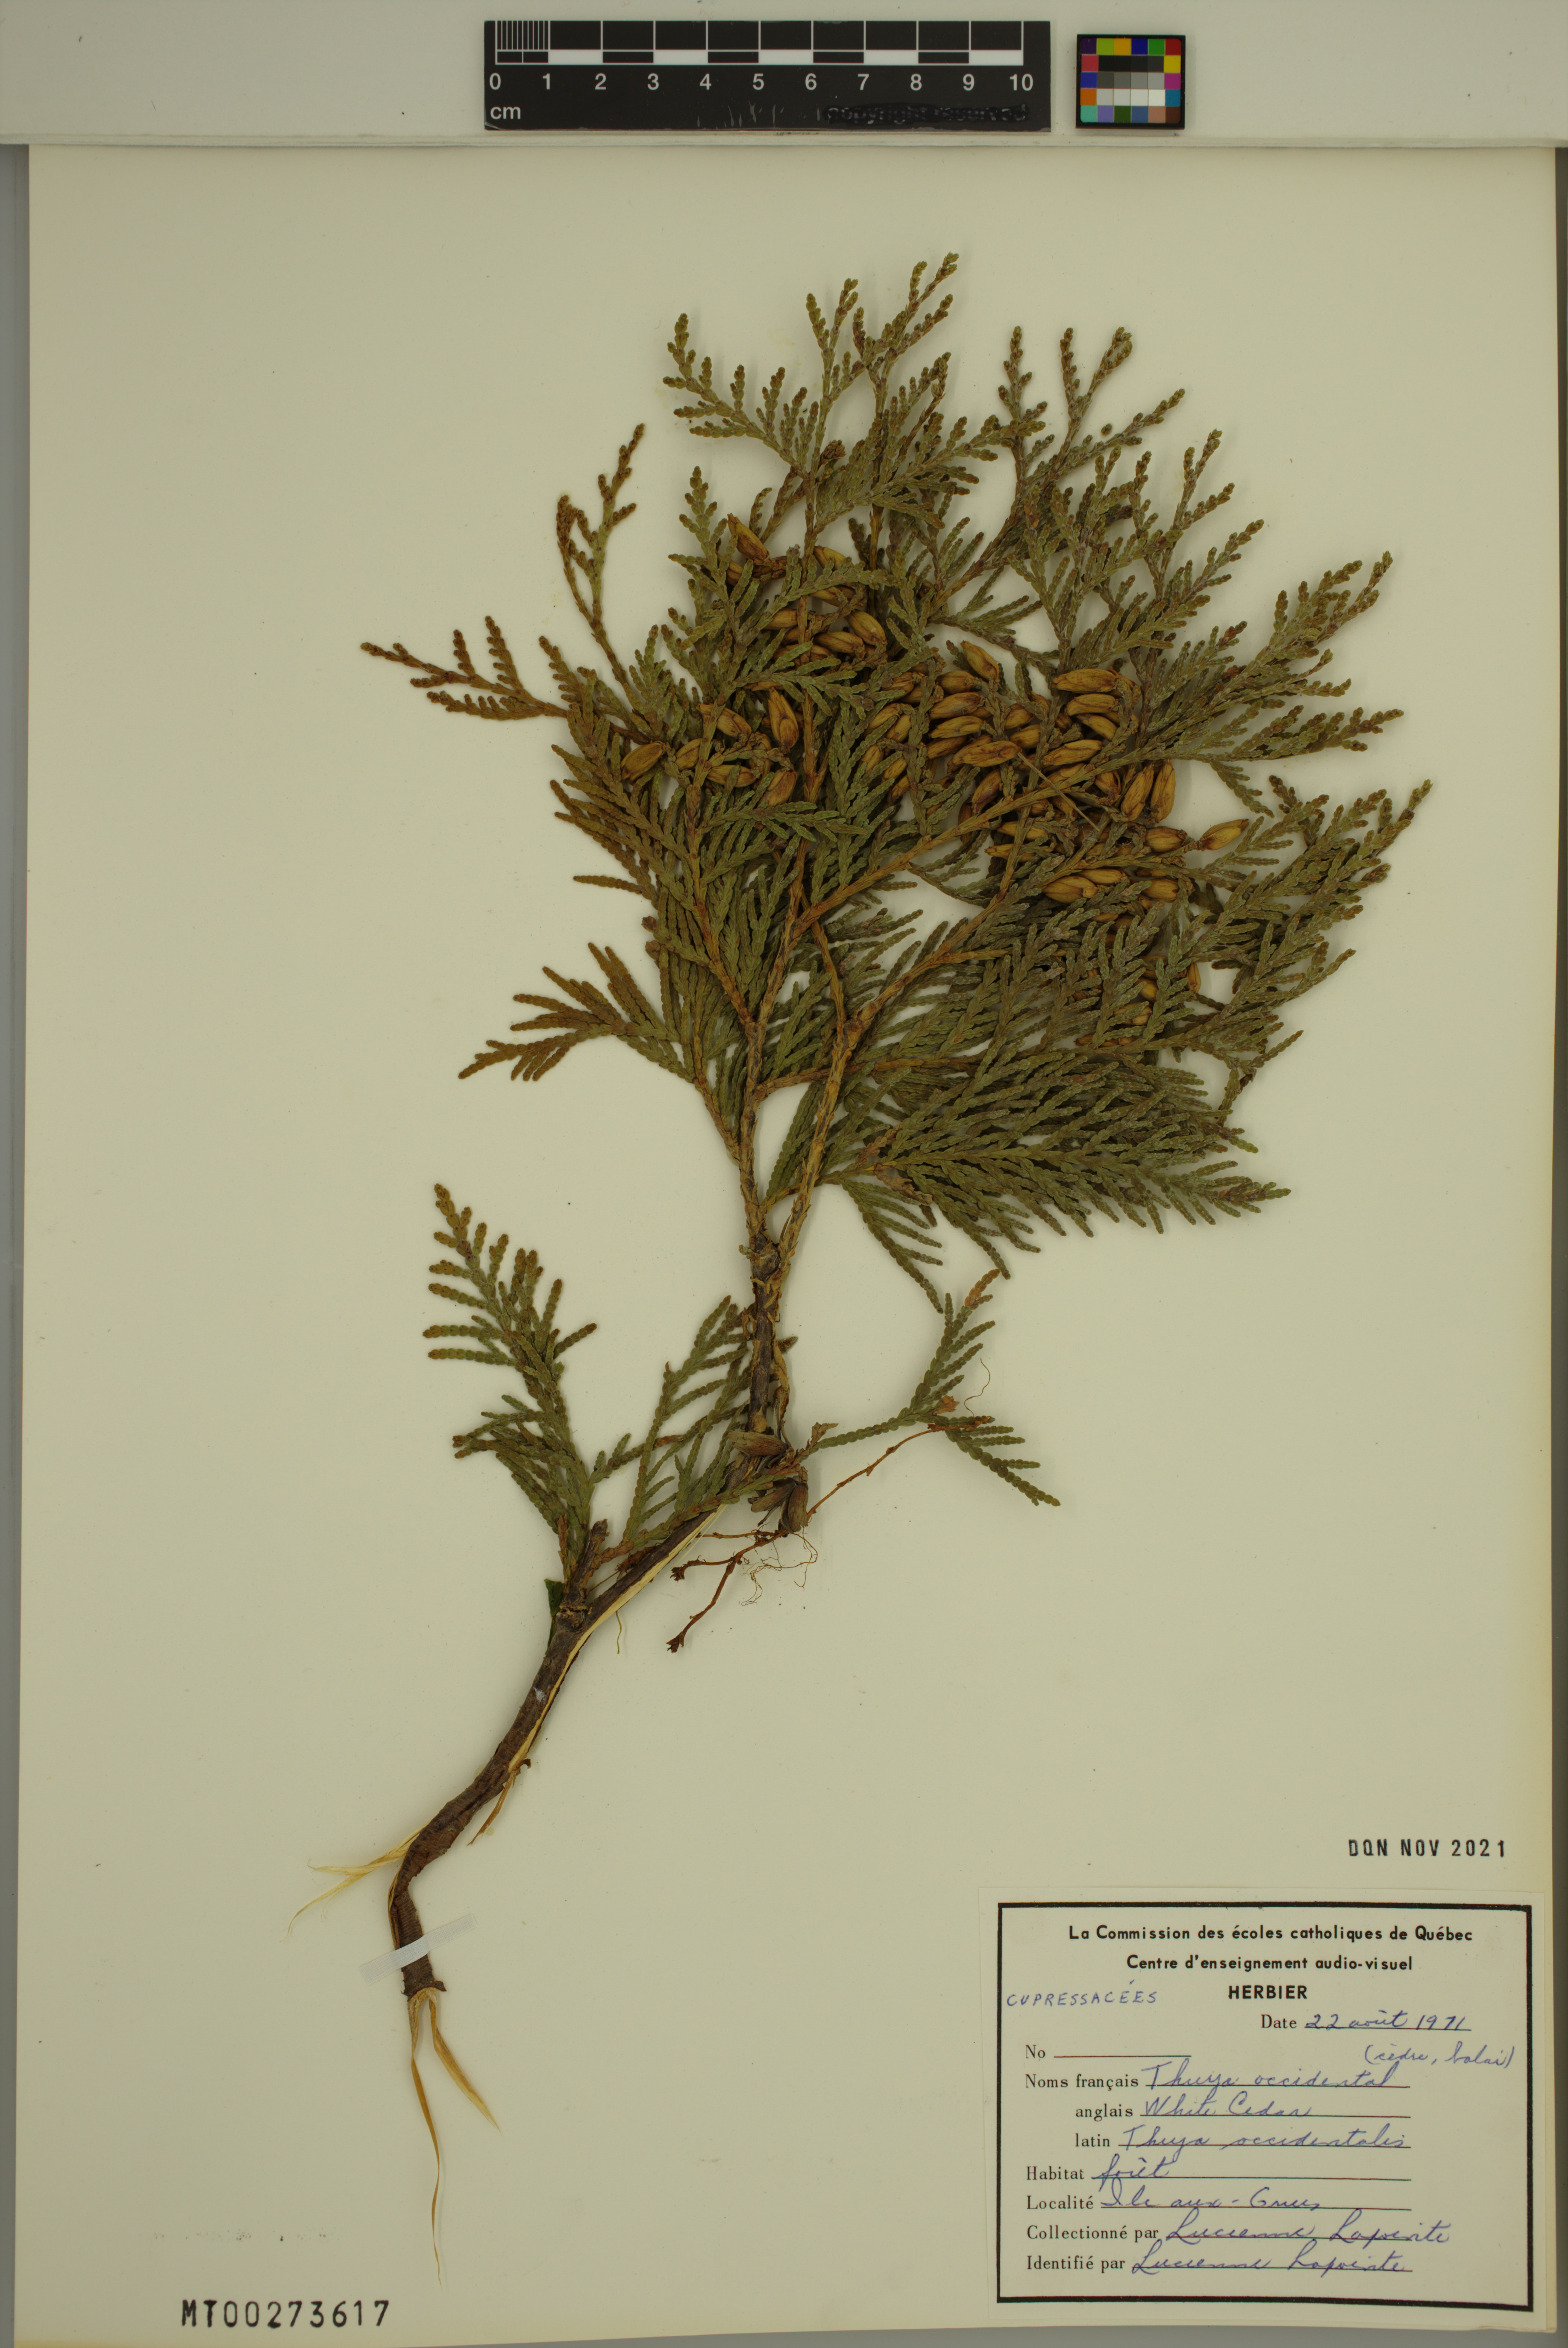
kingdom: Plantae
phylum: Tracheophyta
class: Pinopsida
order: Pinales
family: Cupressaceae
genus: Thuja
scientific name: Thuja occidentalis
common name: Northern white-cedar
